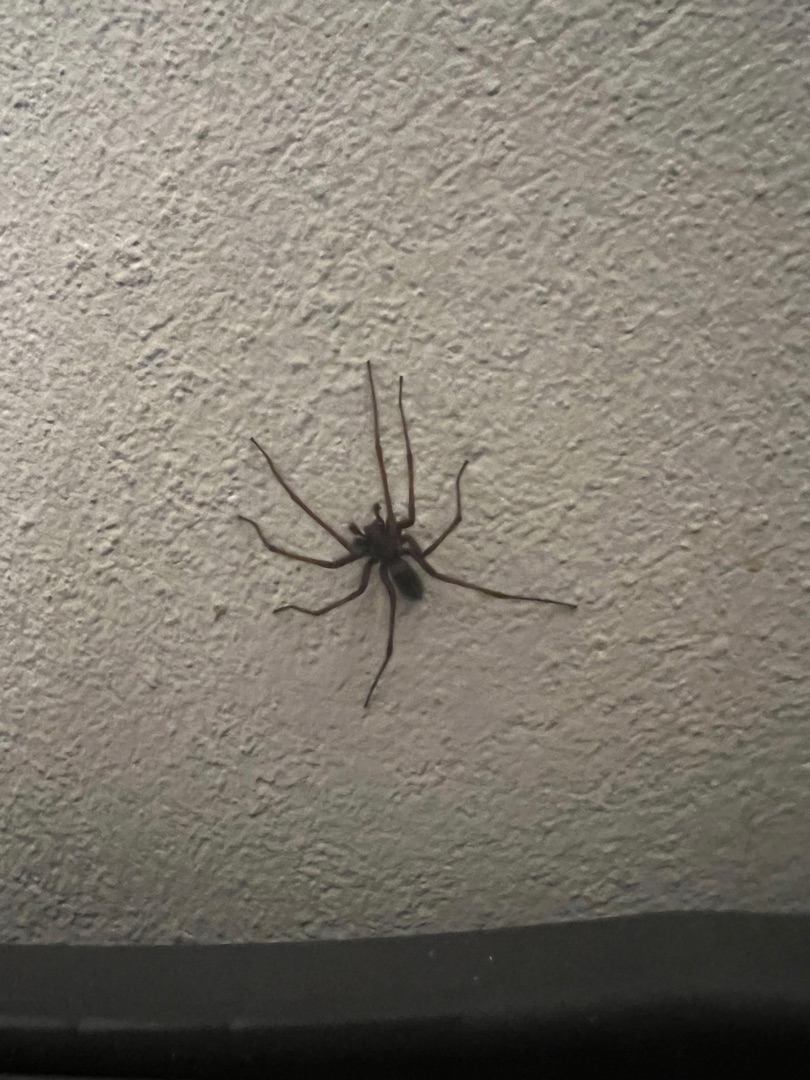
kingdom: Animalia
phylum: Arthropoda
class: Arachnida
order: Araneae
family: Agelenidae
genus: Eratigena
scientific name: Eratigena atrica
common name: Stor husedderkop
